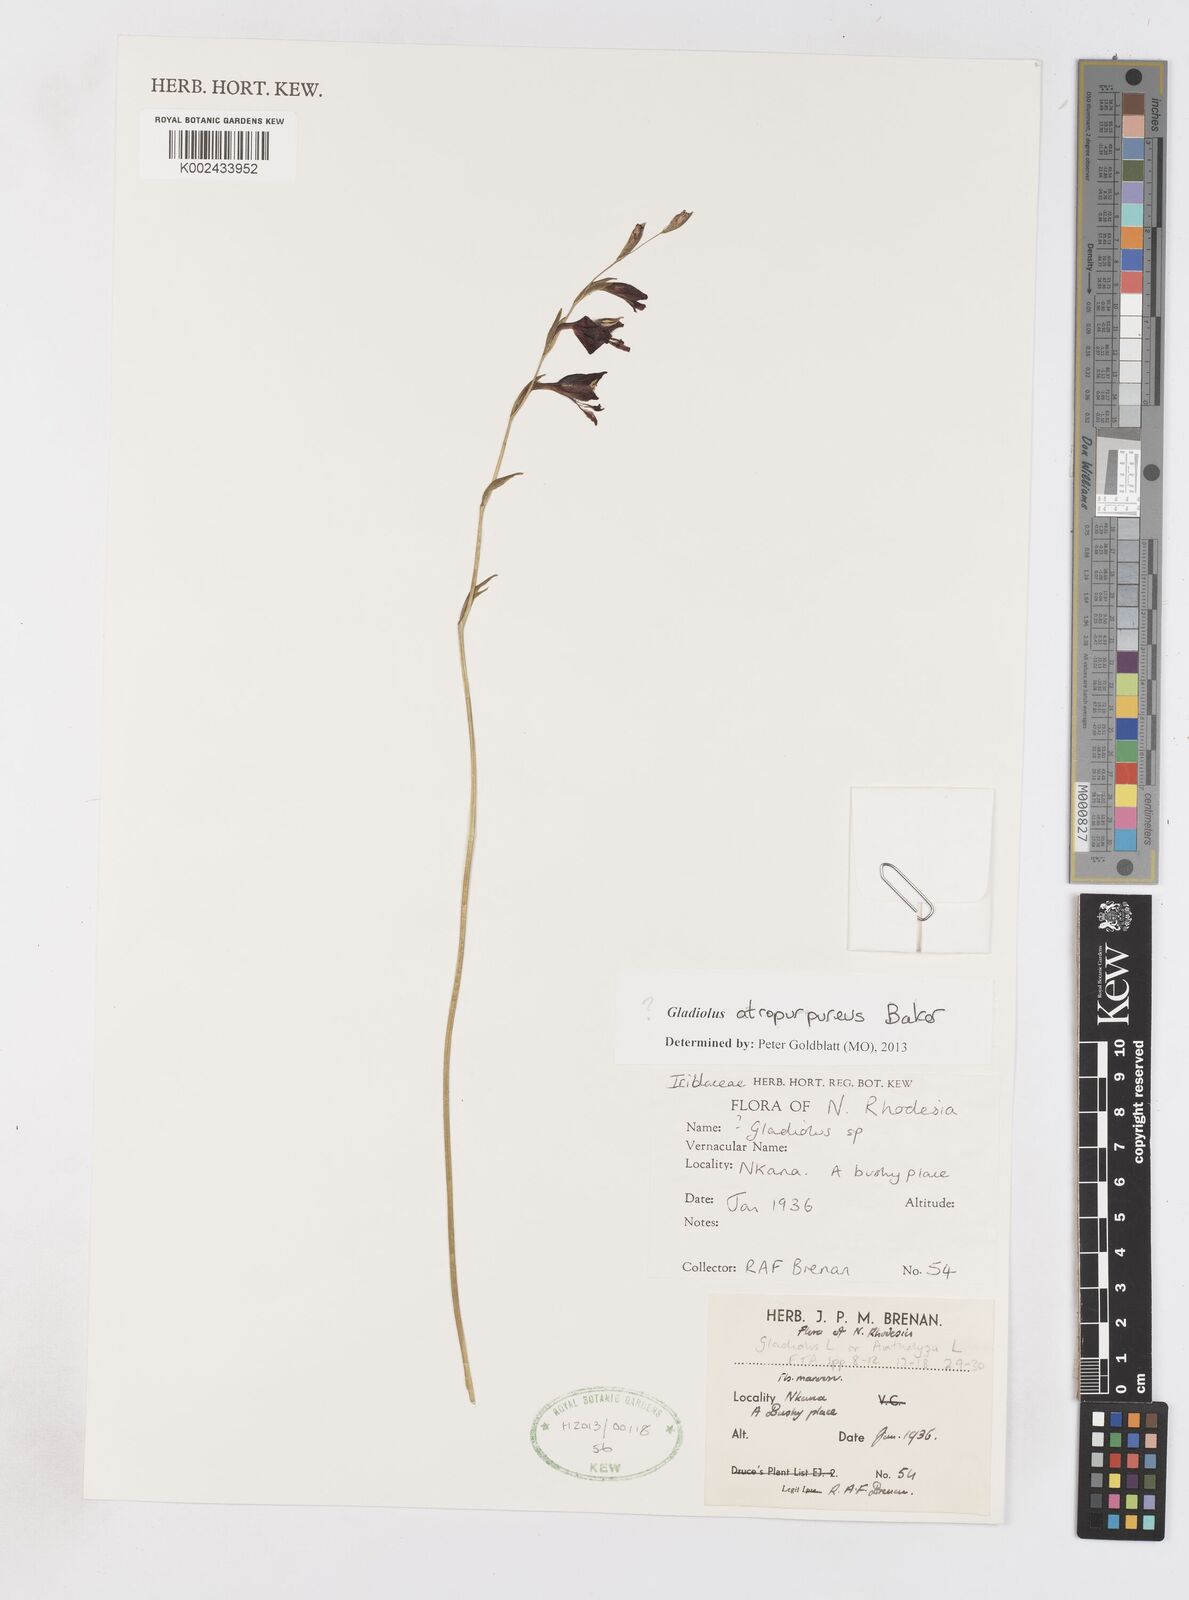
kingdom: Plantae
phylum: Tracheophyta
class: Liliopsida
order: Asparagales
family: Iridaceae
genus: Gladiolus
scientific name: Gladiolus atropurpureus
